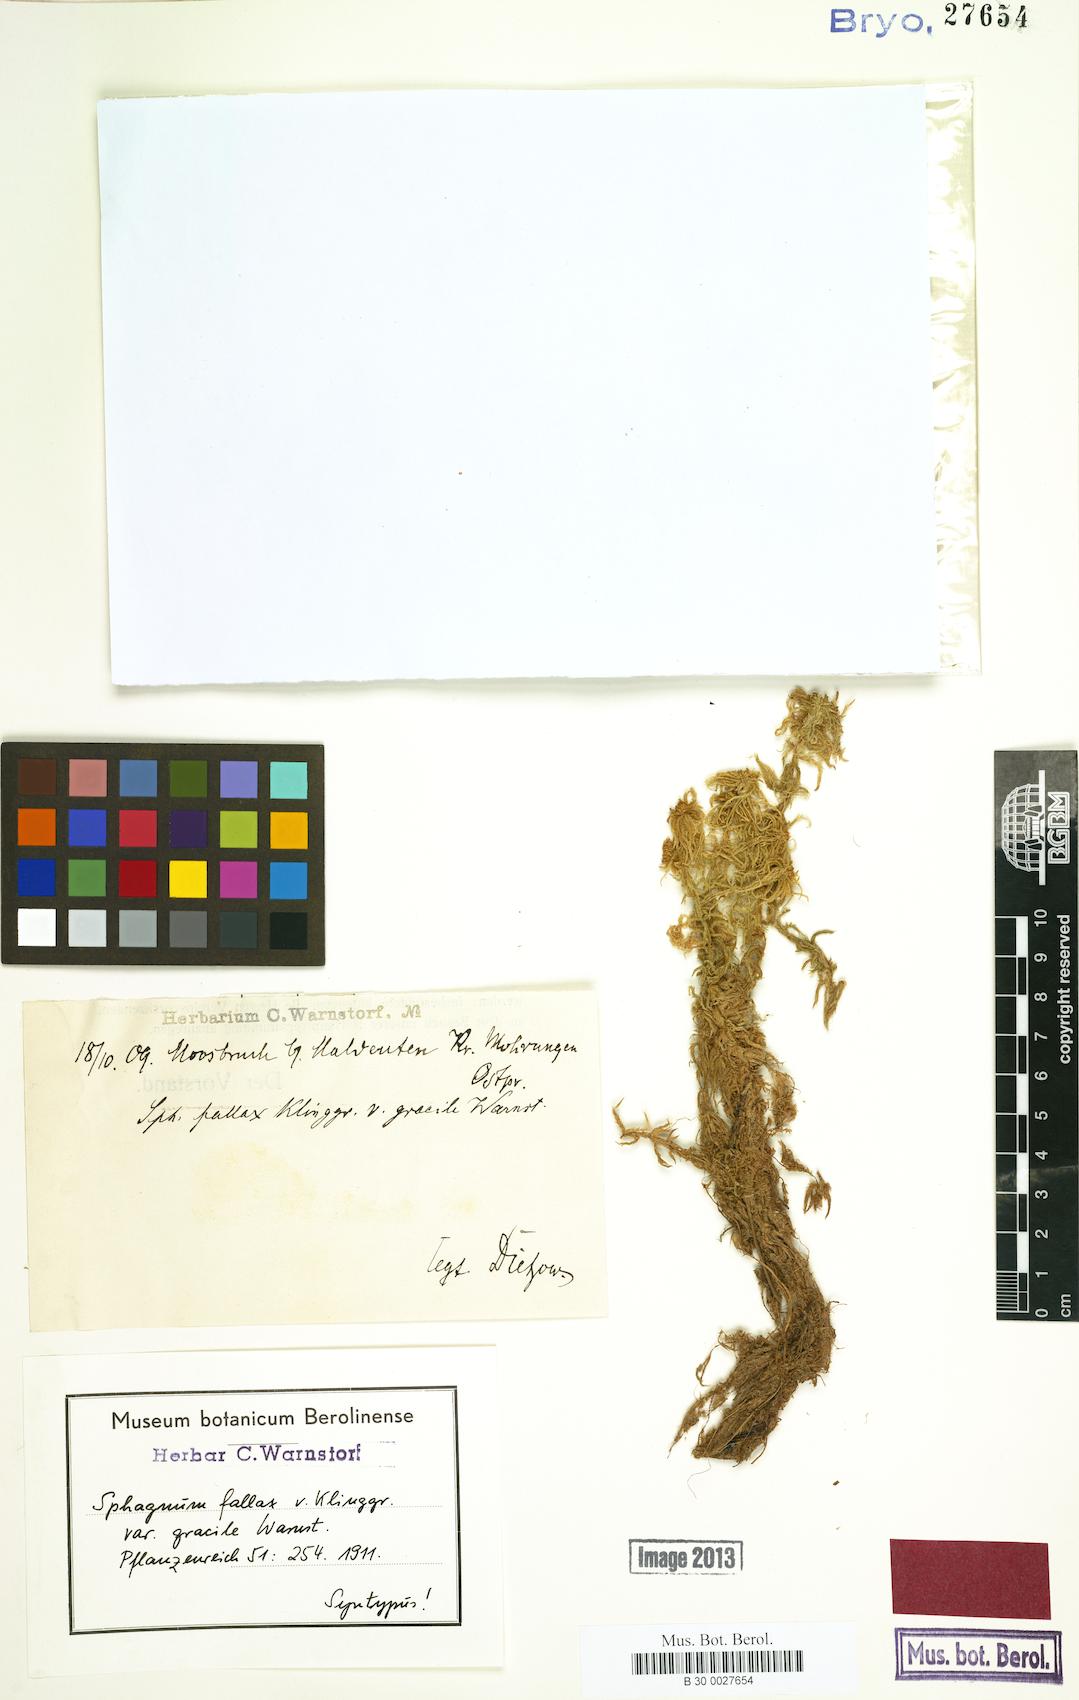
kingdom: Plantae
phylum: Bryophyta
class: Sphagnopsida
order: Sphagnales
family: Sphagnaceae
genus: Sphagnum
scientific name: Sphagnum fallax
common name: Flat-top peat moss
